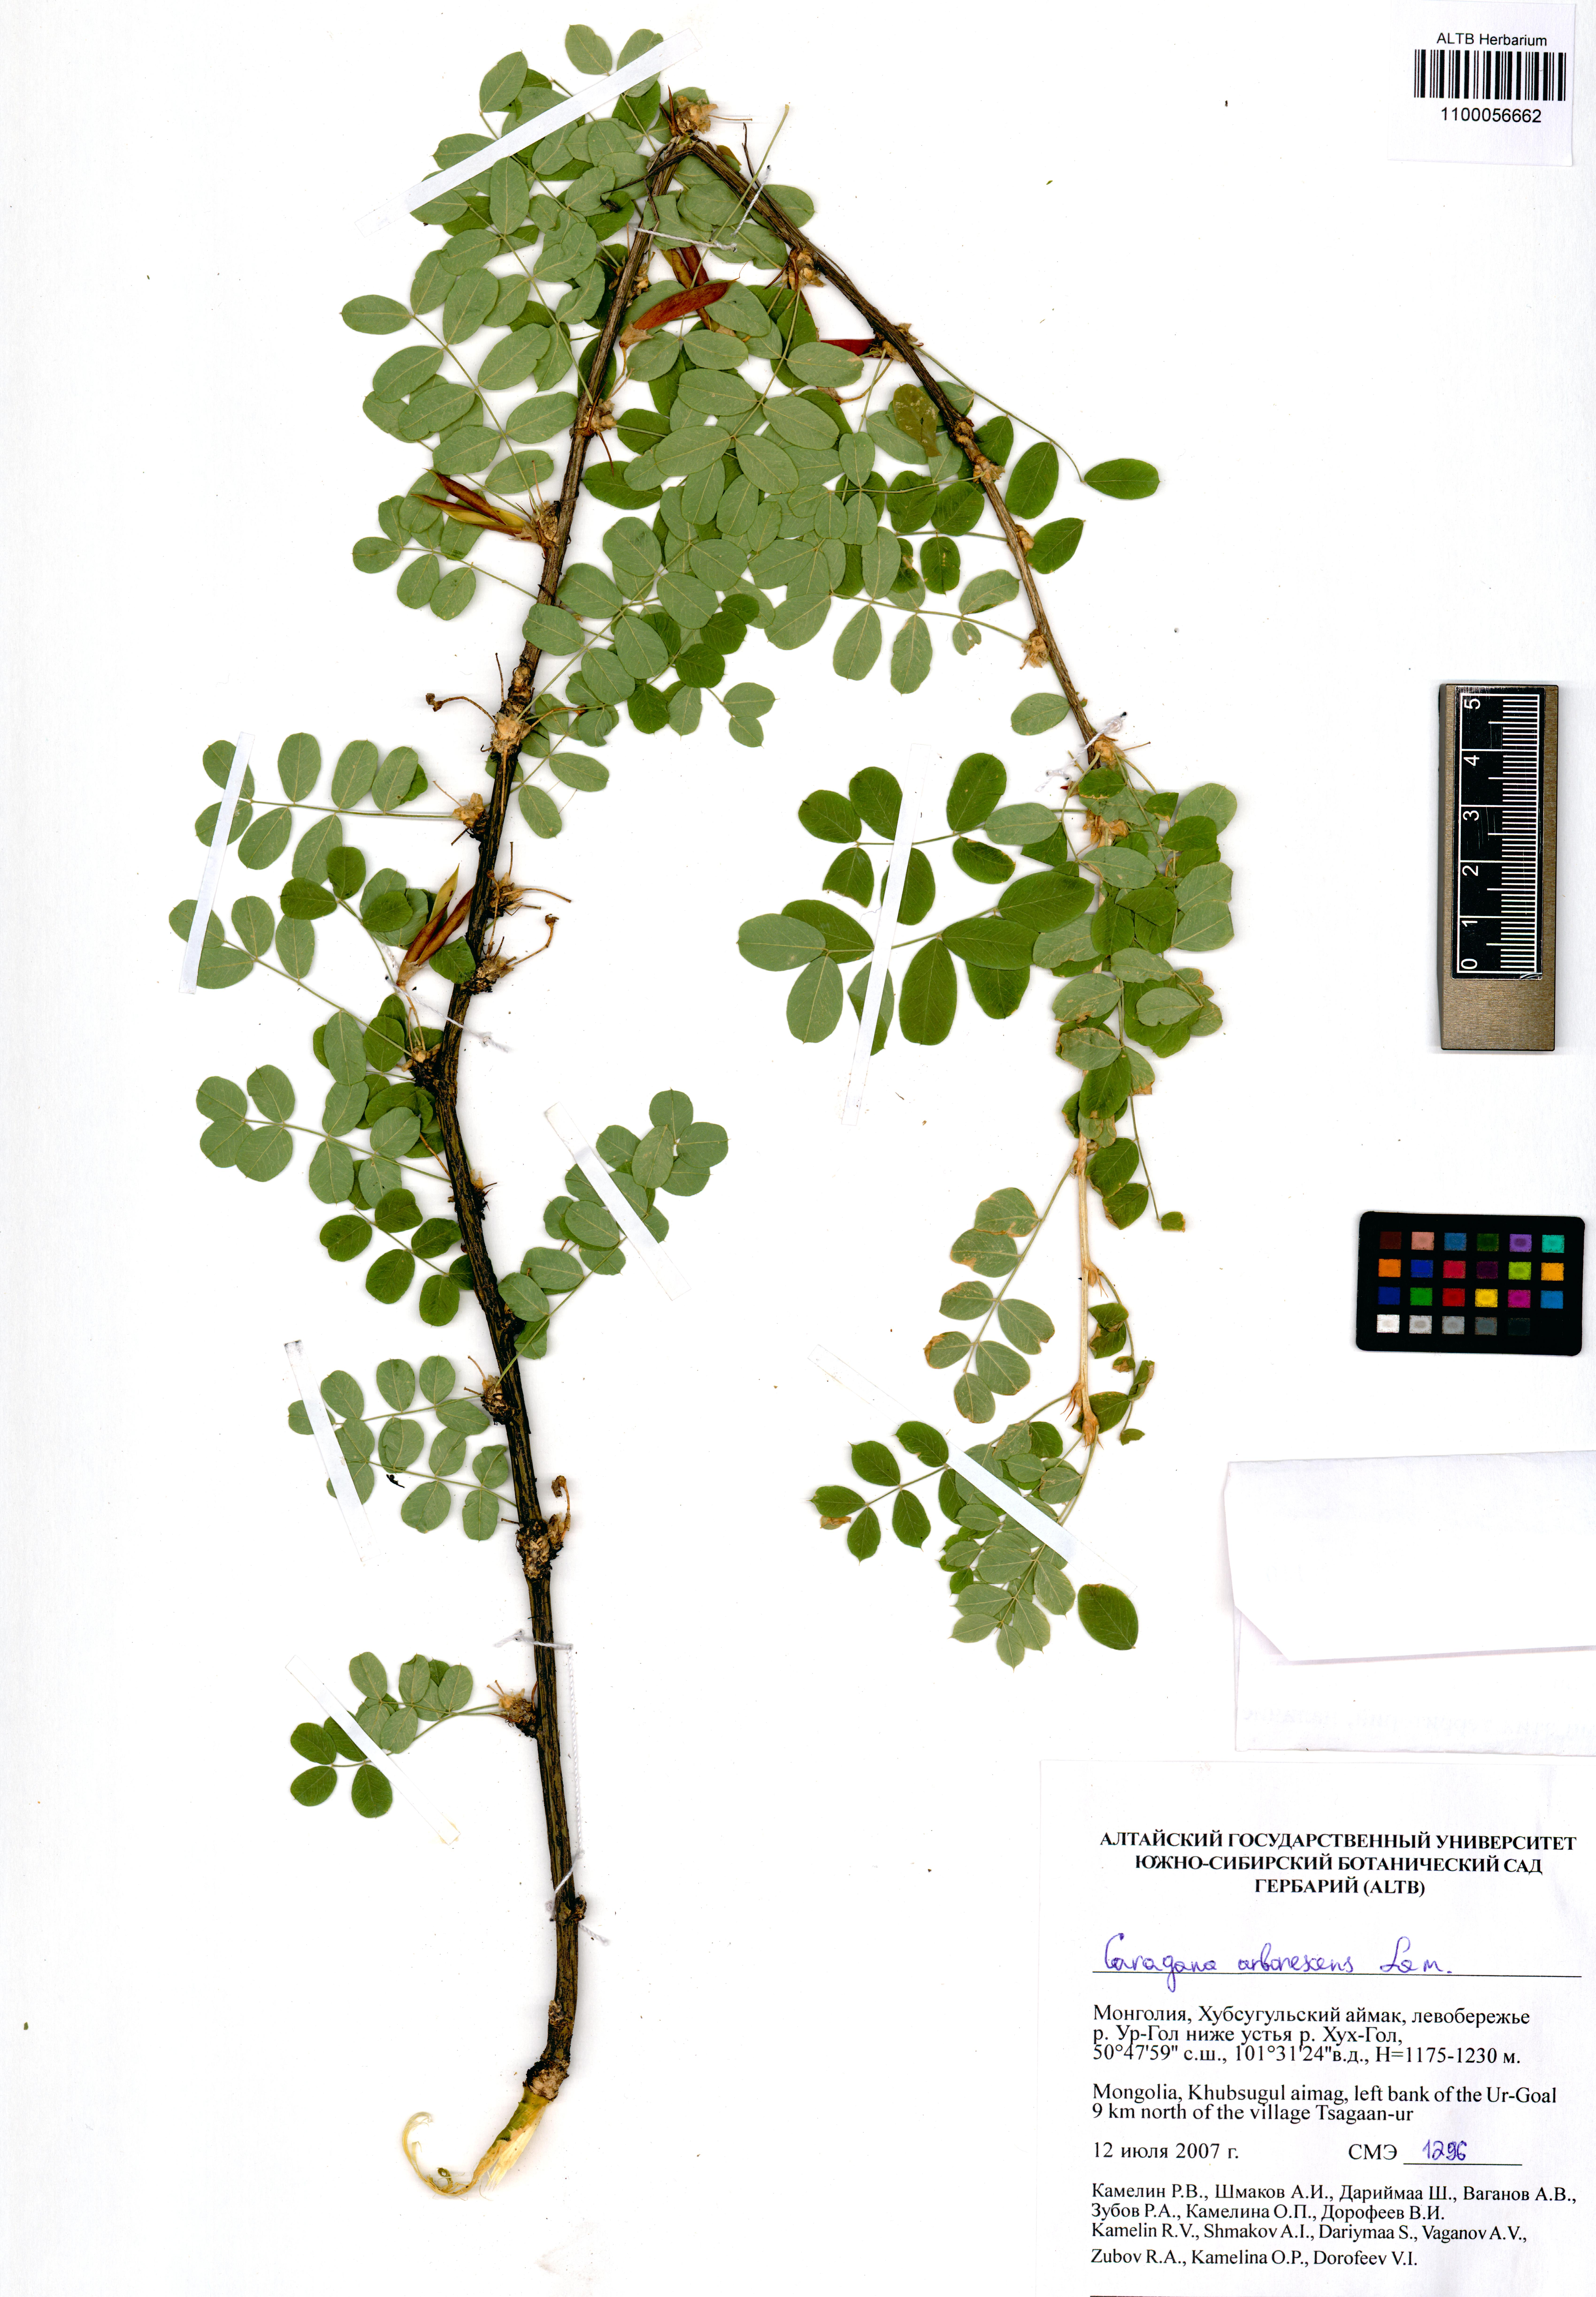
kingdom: Plantae
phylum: Tracheophyta
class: Magnoliopsida
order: Fabales
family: Fabaceae
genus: Caragana
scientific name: Caragana arborescens
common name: Siberian peashrub
